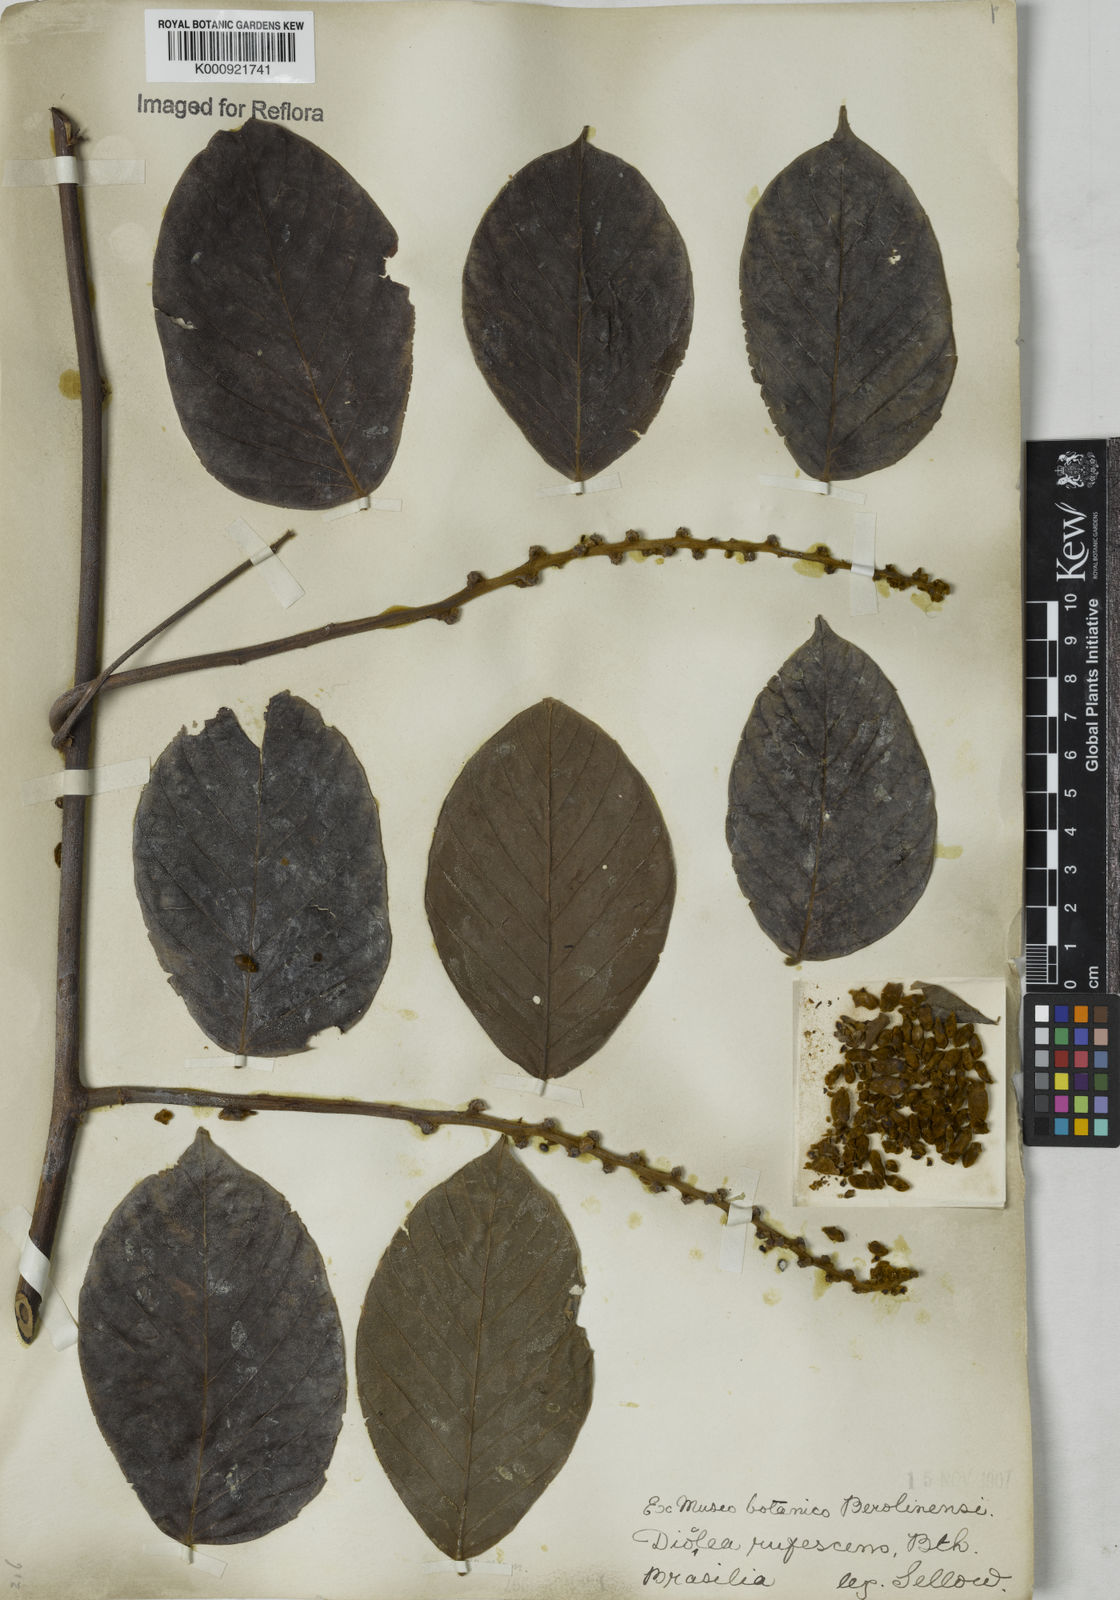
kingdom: Plantae
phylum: Tracheophyta
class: Magnoliopsida
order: Fabales
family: Fabaceae
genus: Macropsychanthus
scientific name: Macropsychanthus rufescens
